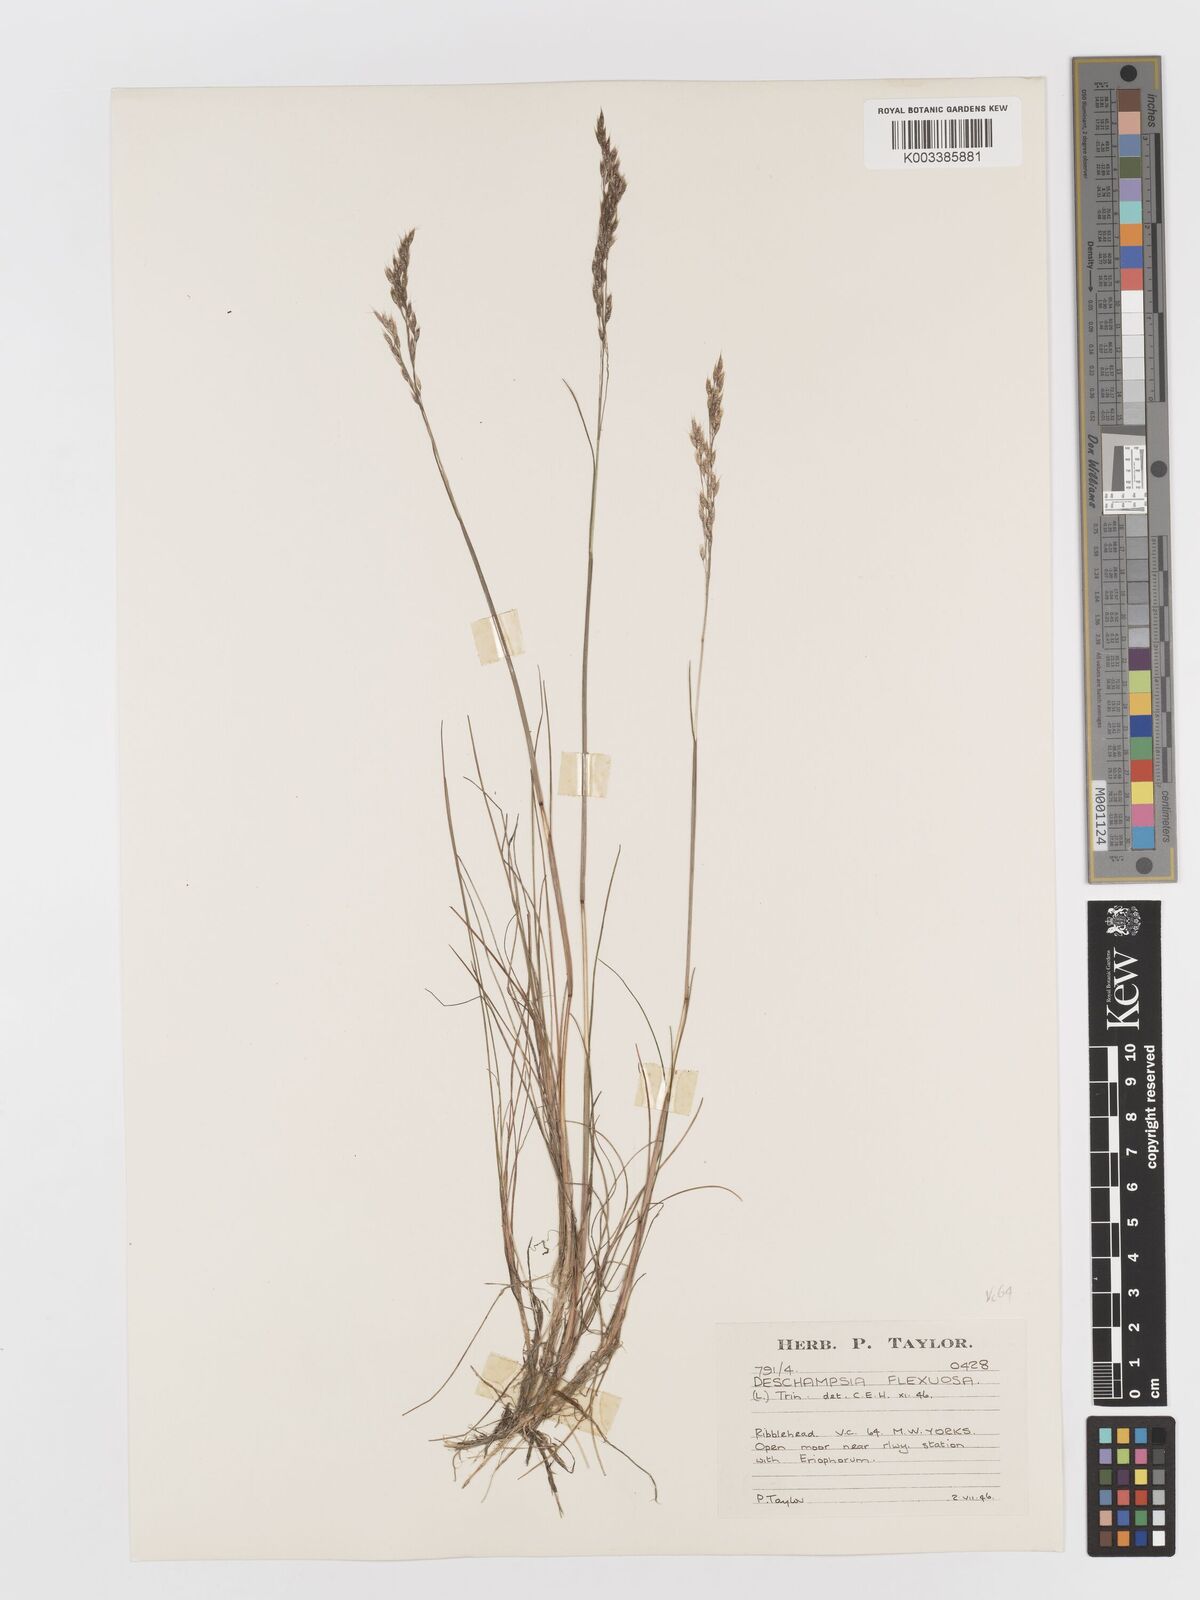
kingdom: Plantae
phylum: Tracheophyta
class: Liliopsida
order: Poales
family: Poaceae
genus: Avenella
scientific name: Avenella flexuosa
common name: Wavy hairgrass
